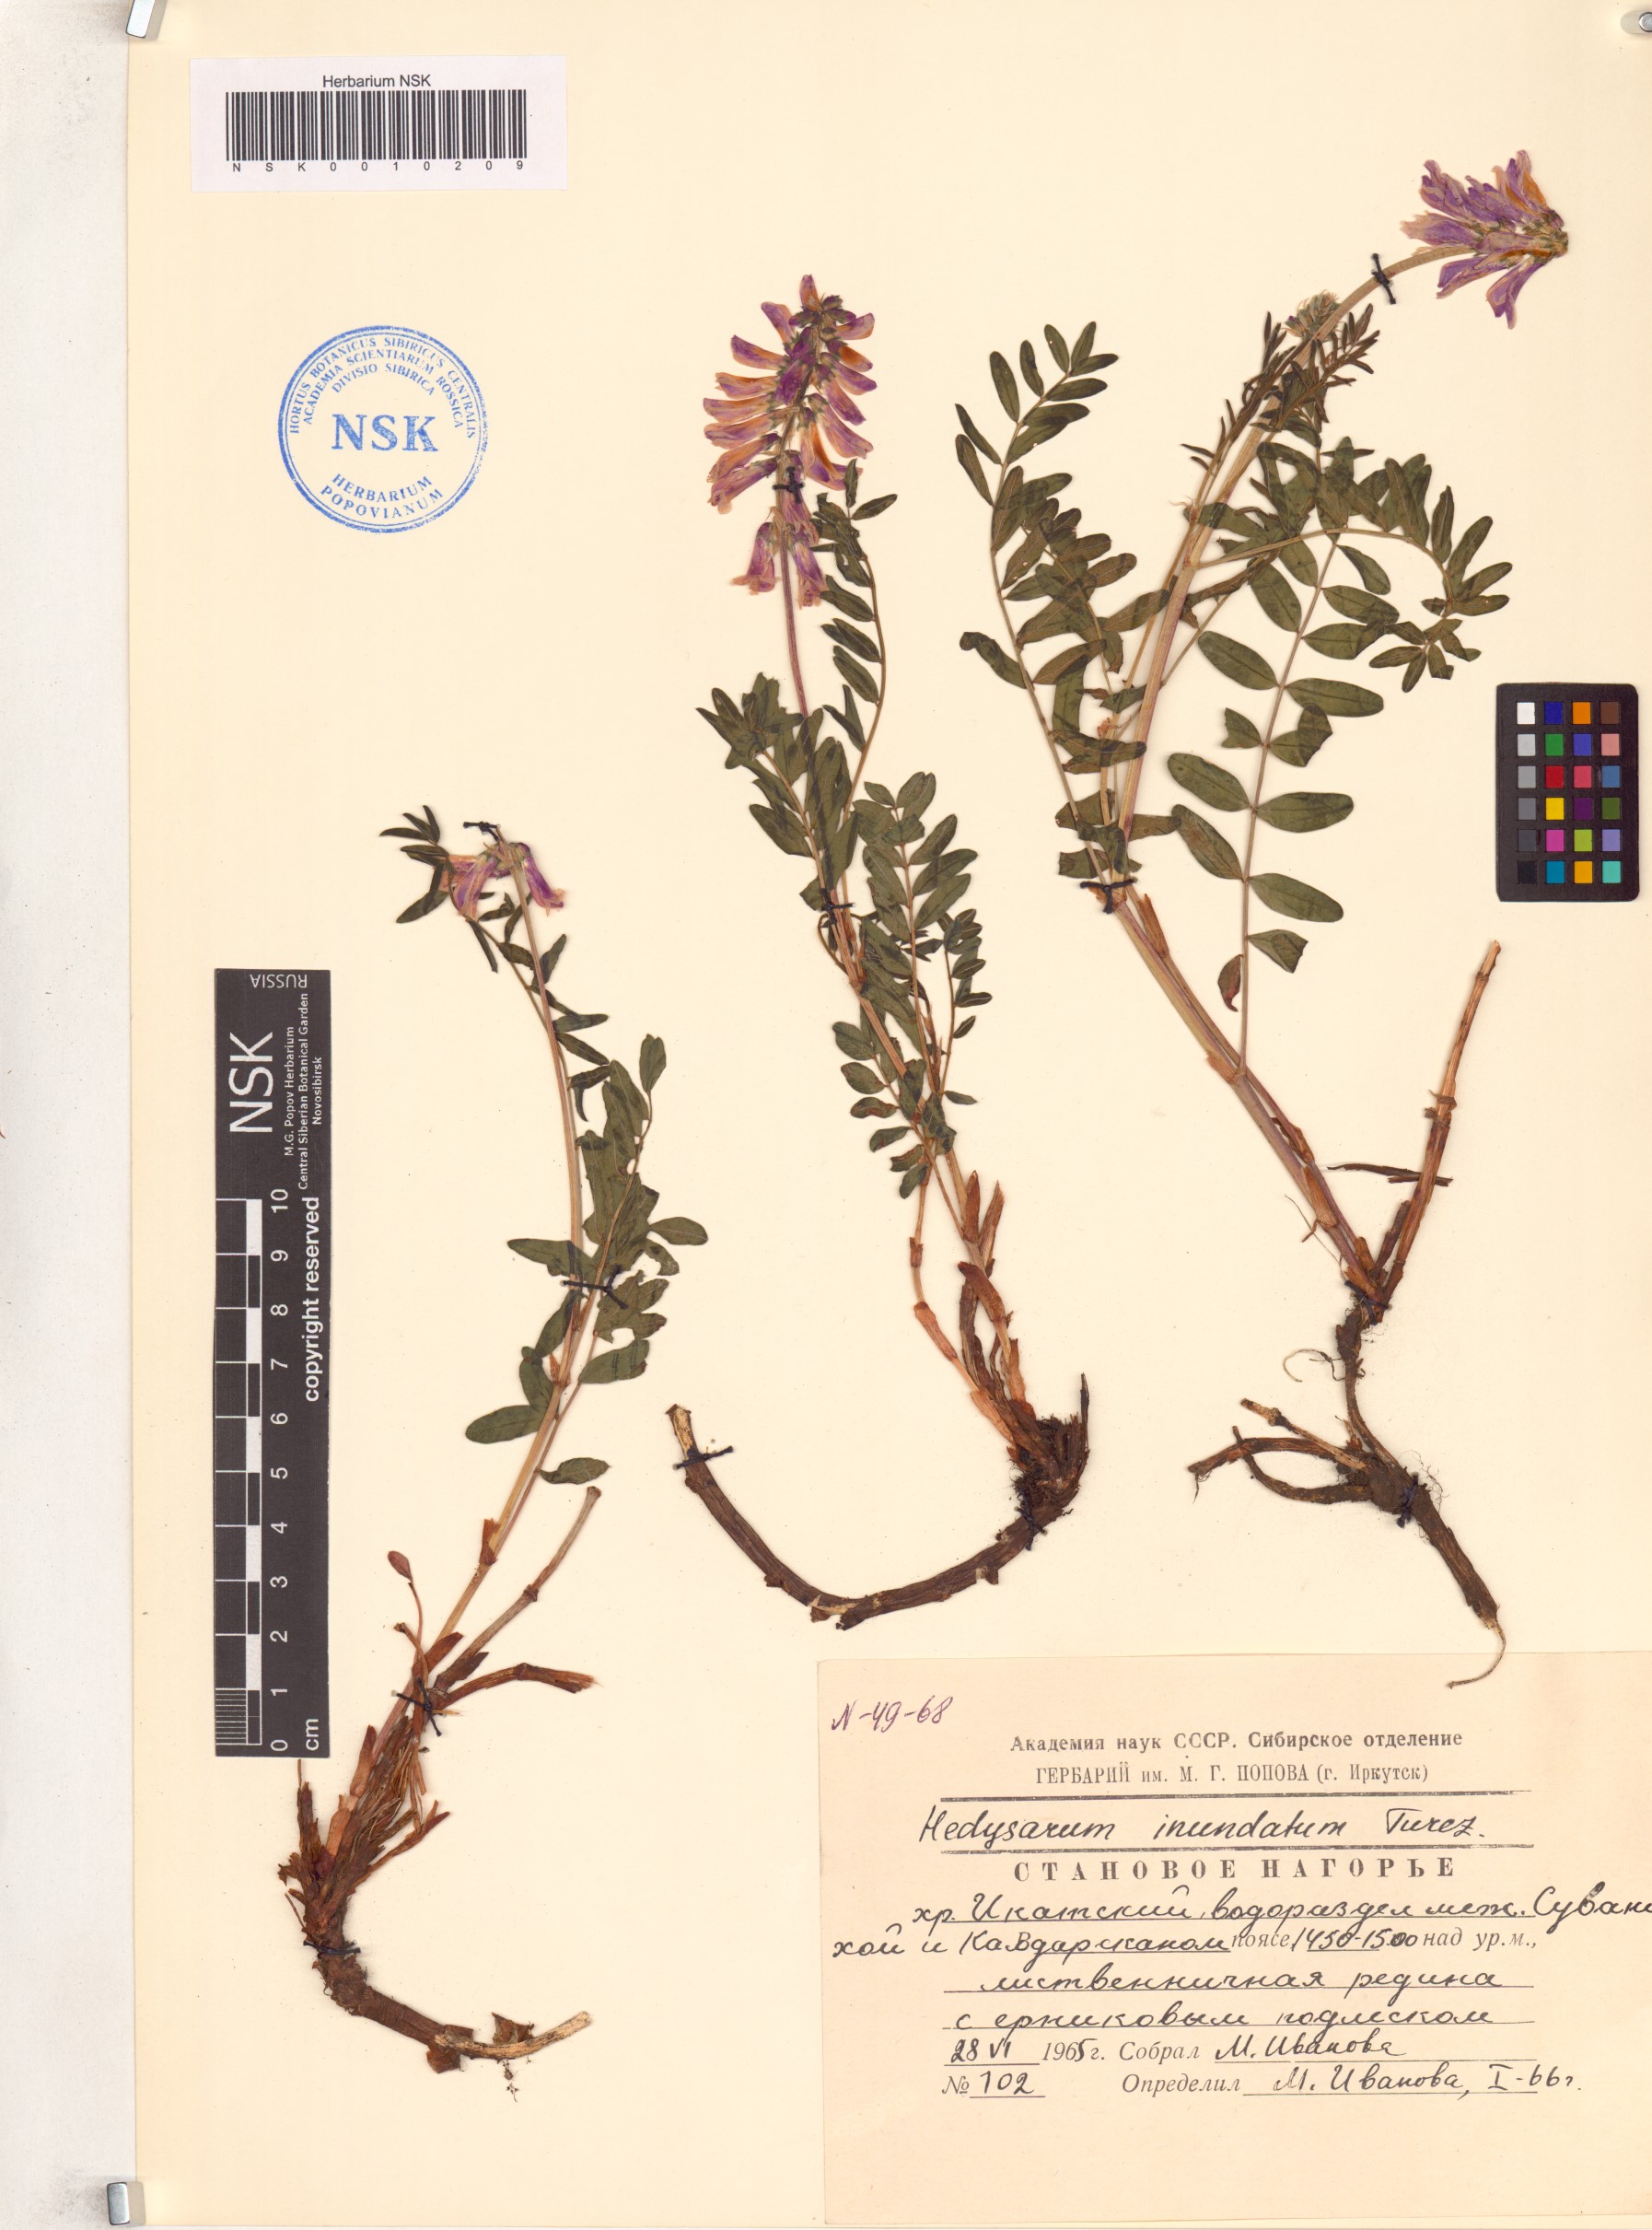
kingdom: Plantae
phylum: Tracheophyta
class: Magnoliopsida
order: Fabales
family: Fabaceae
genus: Hedysarum
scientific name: Hedysarum inundatum
